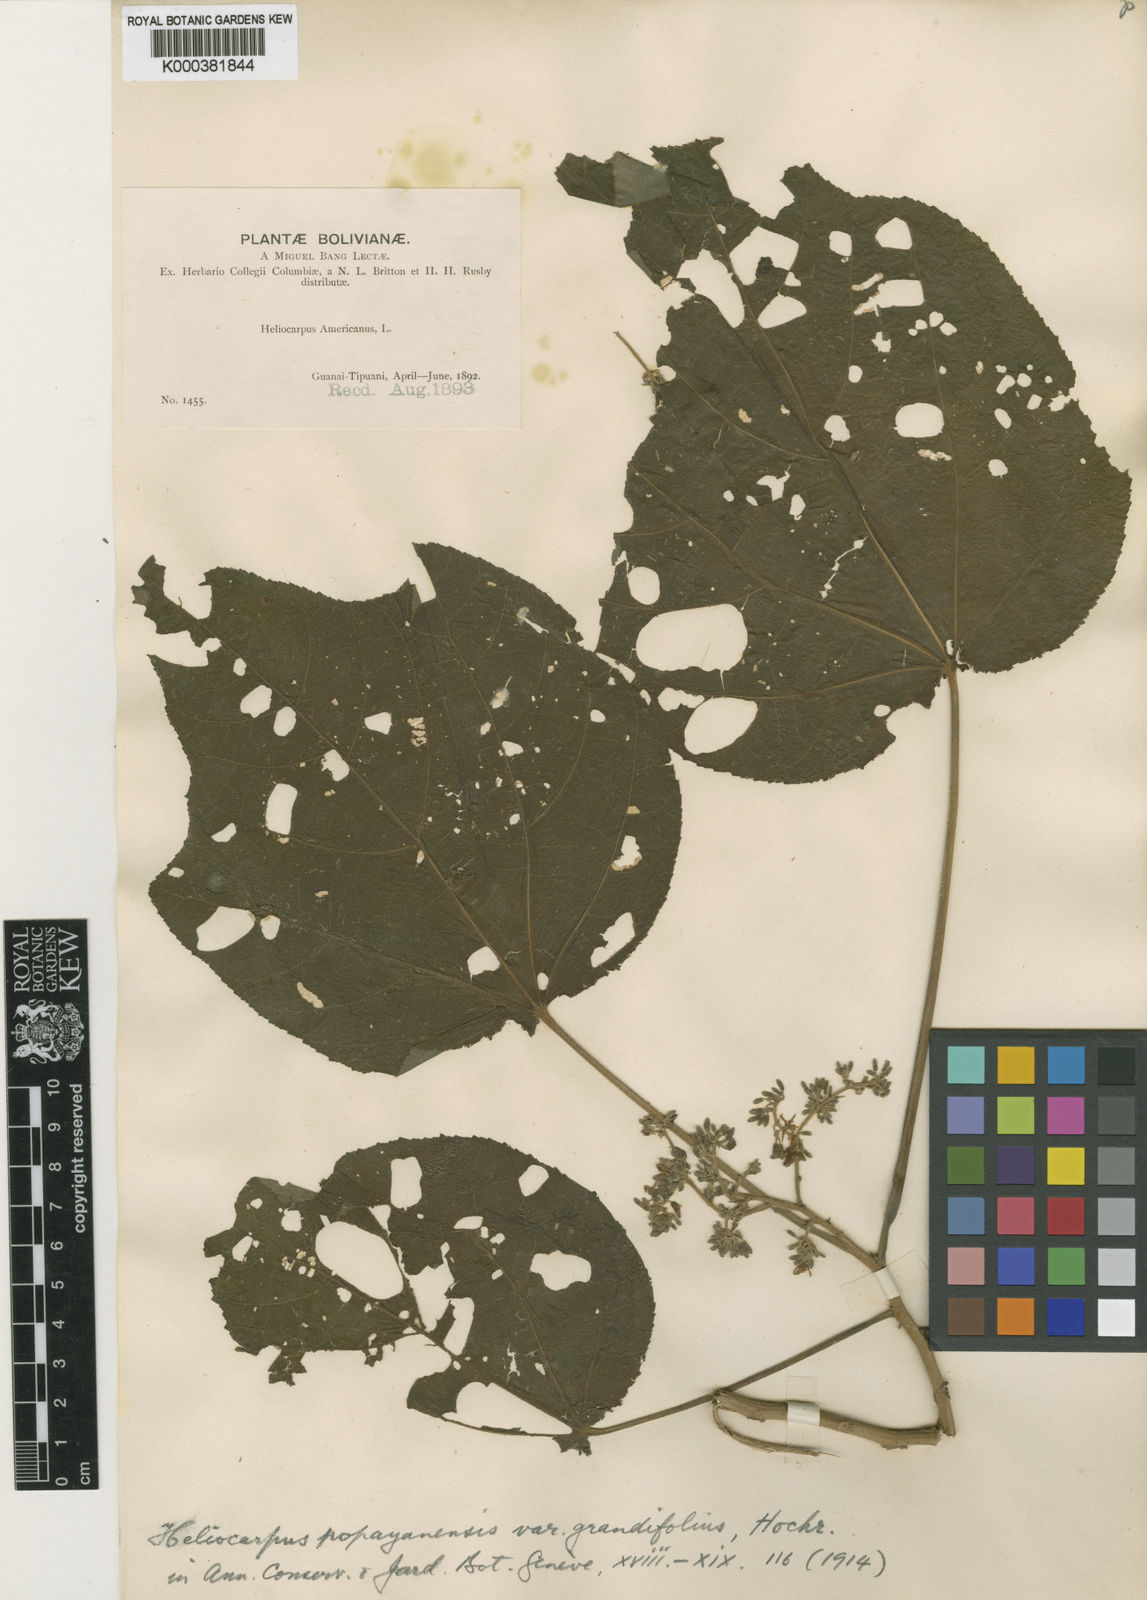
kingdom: Plantae
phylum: Tracheophyta
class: Magnoliopsida
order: Malvales
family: Malvaceae
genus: Heliocarpus
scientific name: Heliocarpus americanus
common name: White moho
